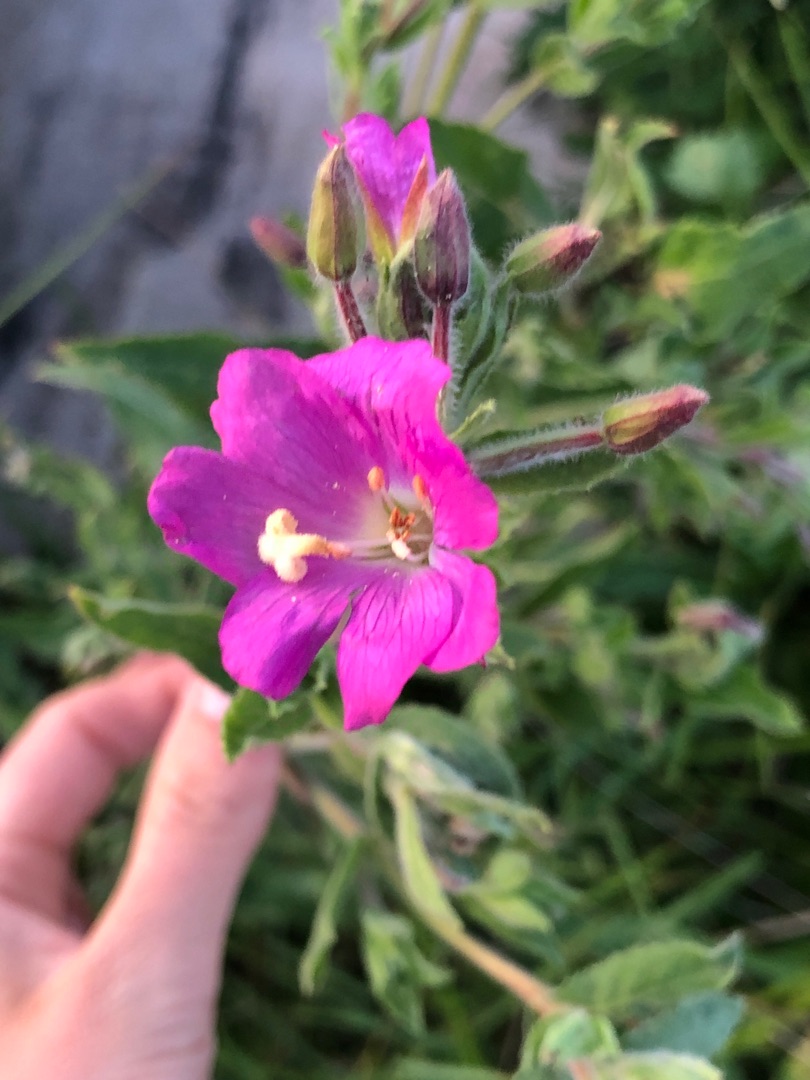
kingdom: Plantae
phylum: Tracheophyta
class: Magnoliopsida
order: Myrtales
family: Onagraceae
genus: Epilobium
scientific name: Epilobium hirsutum
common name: Lådden dueurt
